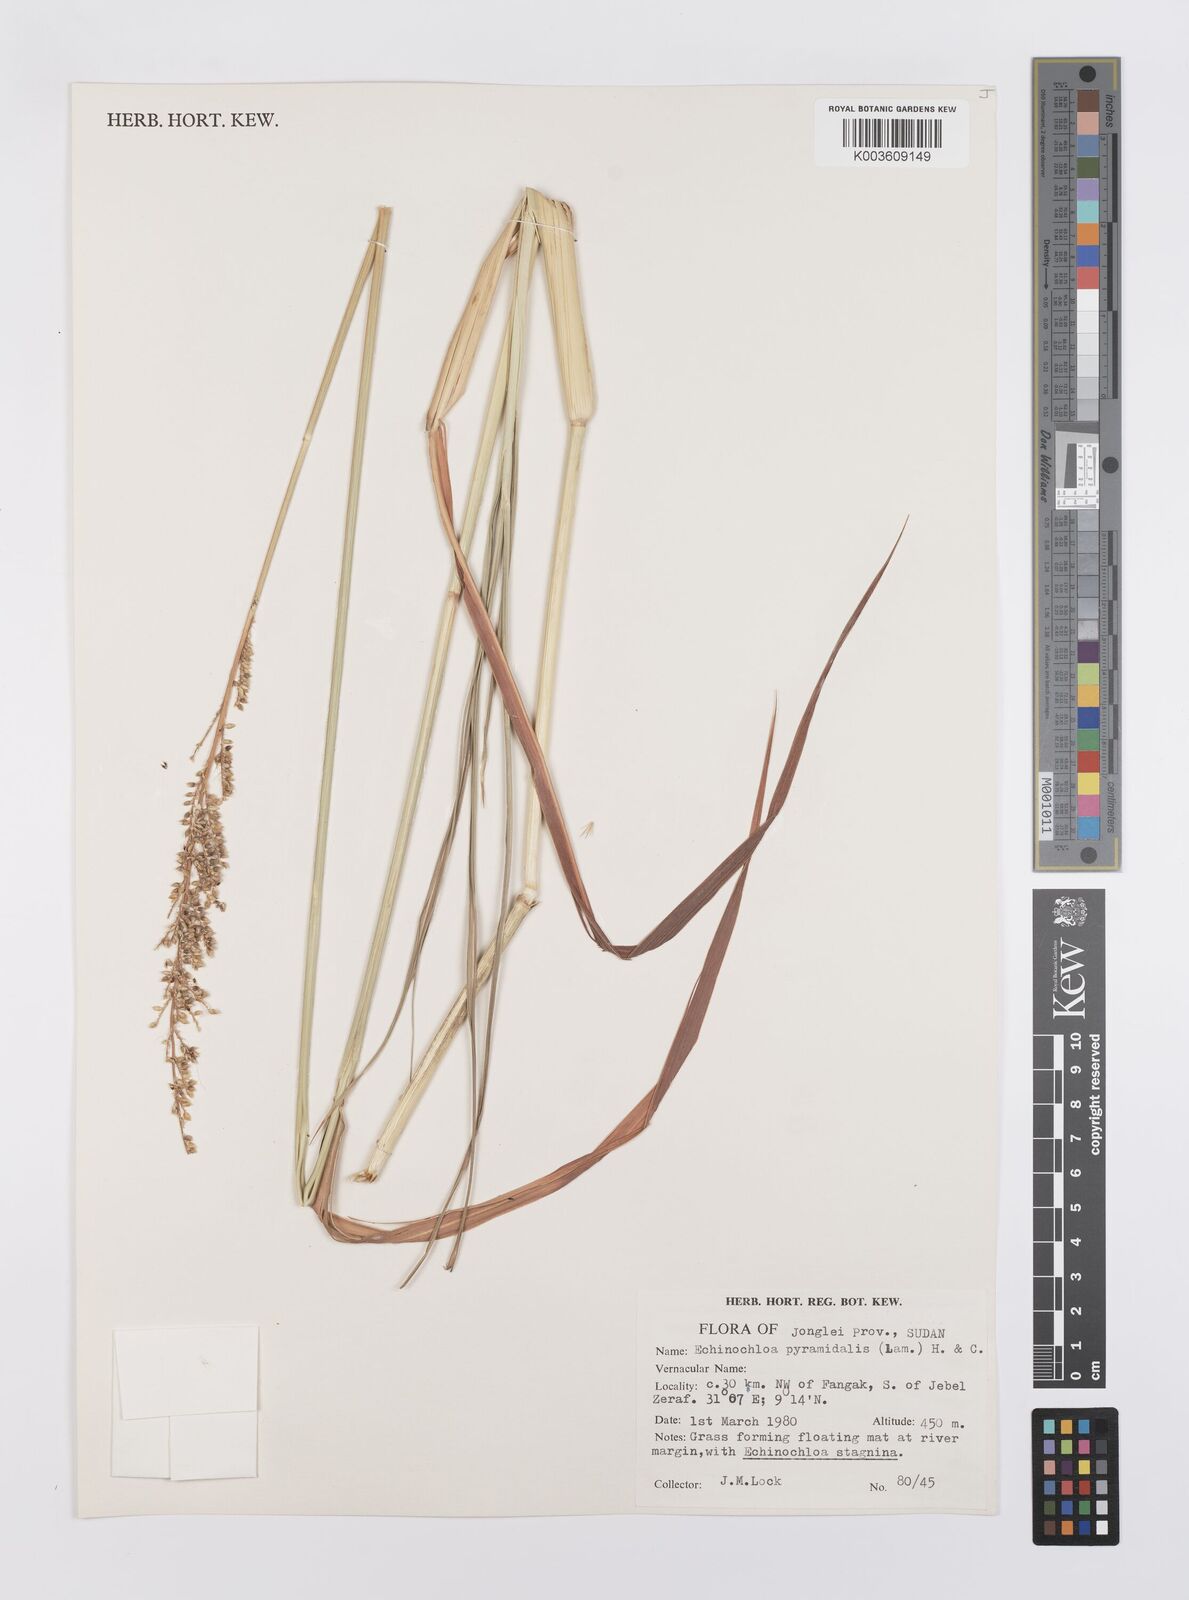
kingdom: Plantae
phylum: Tracheophyta
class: Liliopsida
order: Poales
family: Poaceae
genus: Echinochloa
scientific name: Echinochloa pyramidalis
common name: Antelope grass
